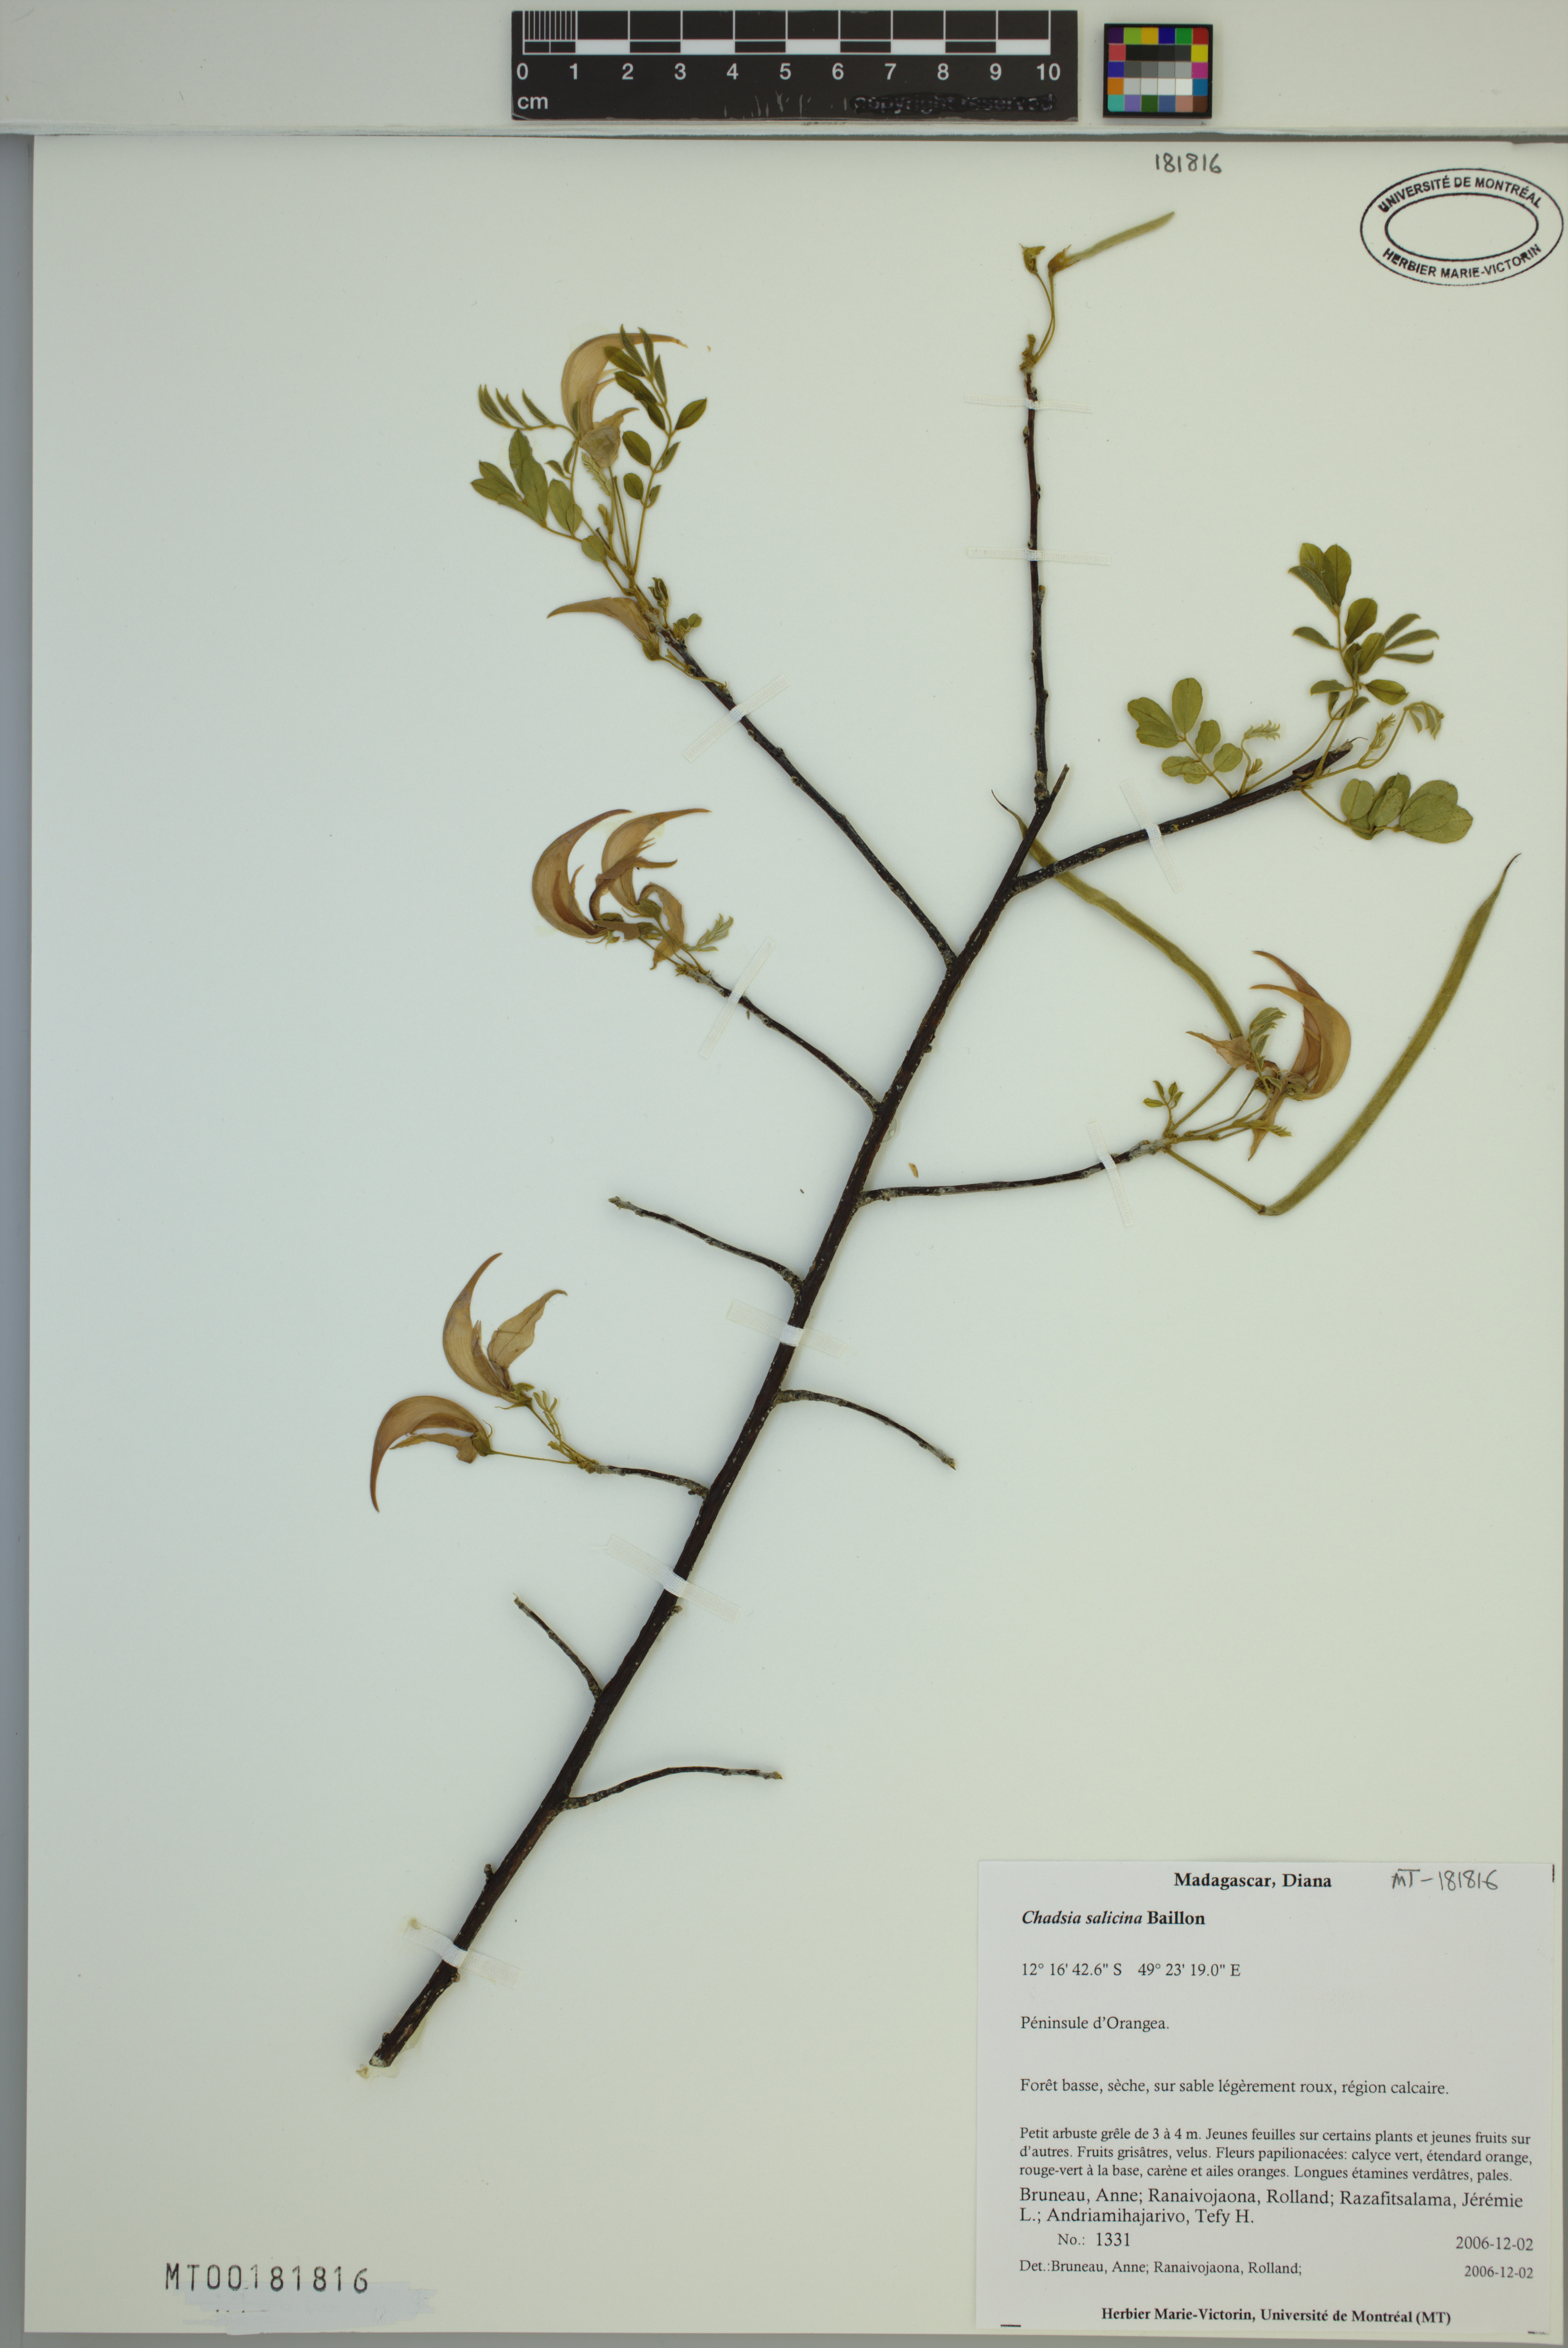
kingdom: Plantae
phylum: Tracheophyta
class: Magnoliopsida
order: Fabales
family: Fabaceae
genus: Chadsia
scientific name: Chadsia salicina
